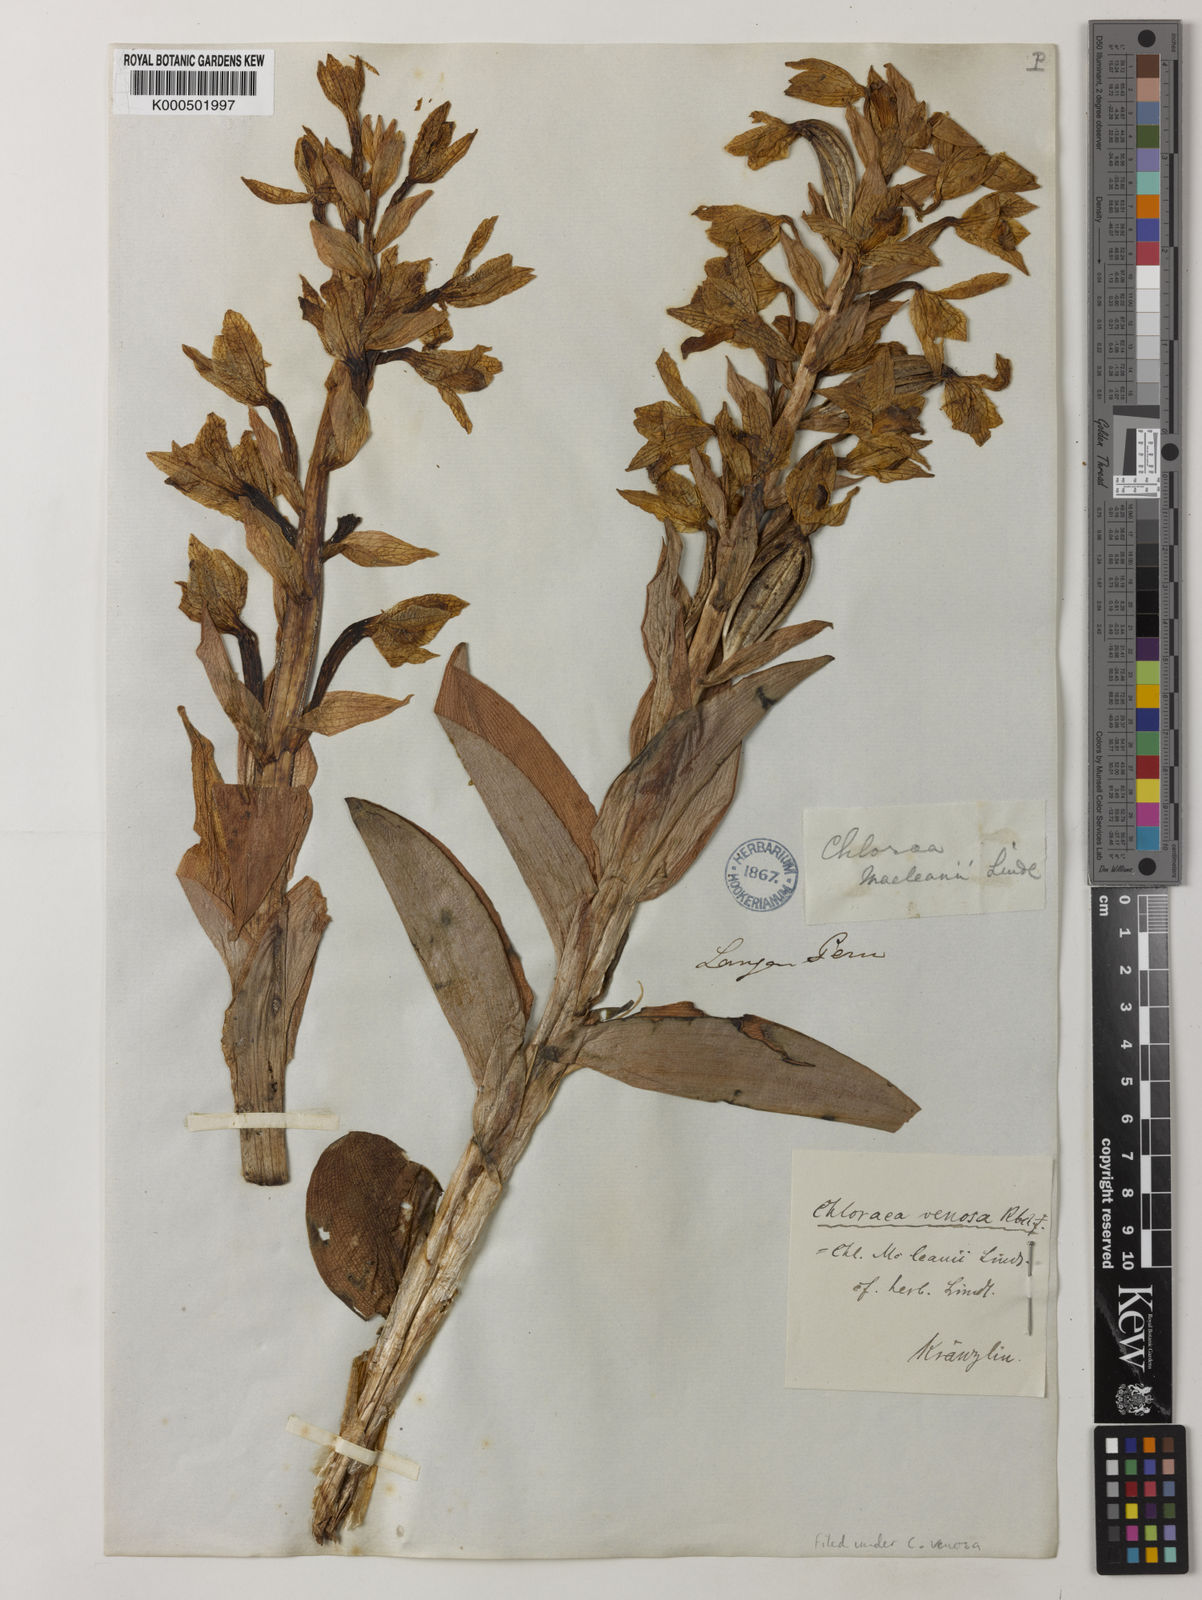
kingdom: Plantae
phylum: Tracheophyta
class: Liliopsida
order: Asparagales
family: Orchidaceae
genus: Chloraea
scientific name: Chloraea venosa
